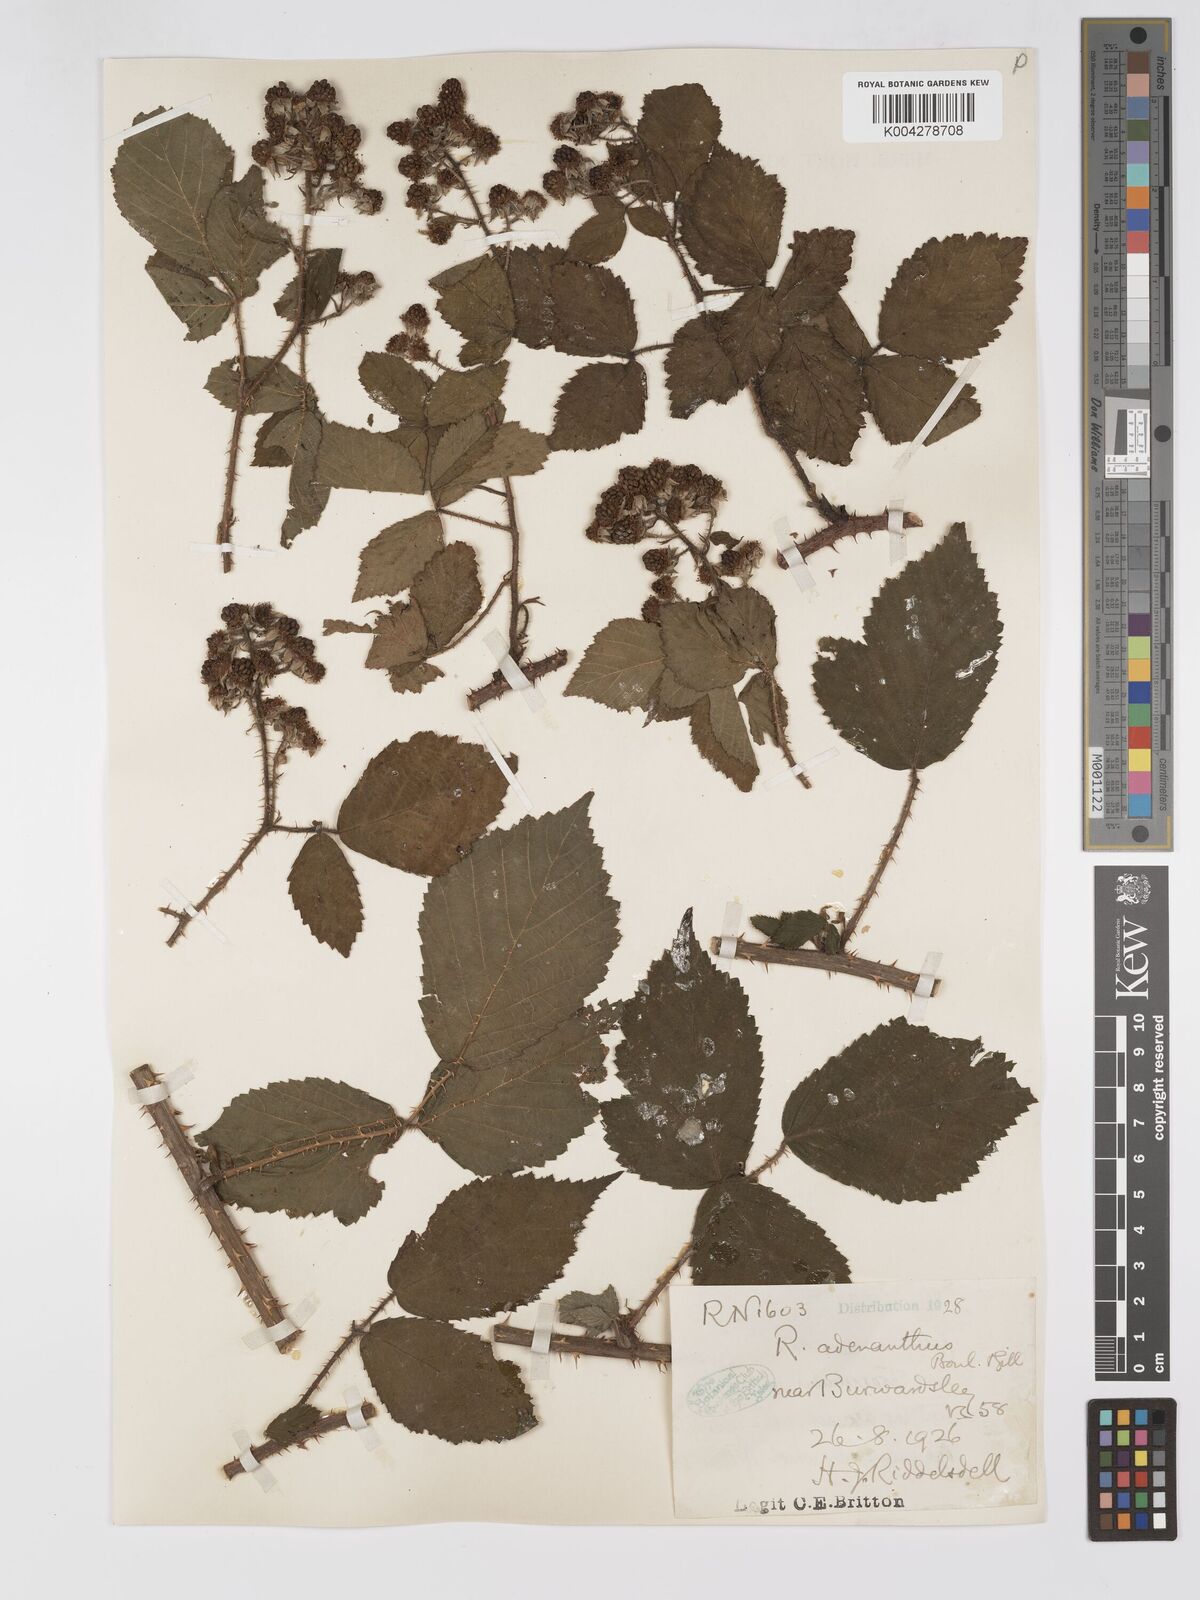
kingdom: Plantae
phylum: Tracheophyta
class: Magnoliopsida
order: Rosales
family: Rosaceae
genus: Rubus
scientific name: Rubus swinhoei
